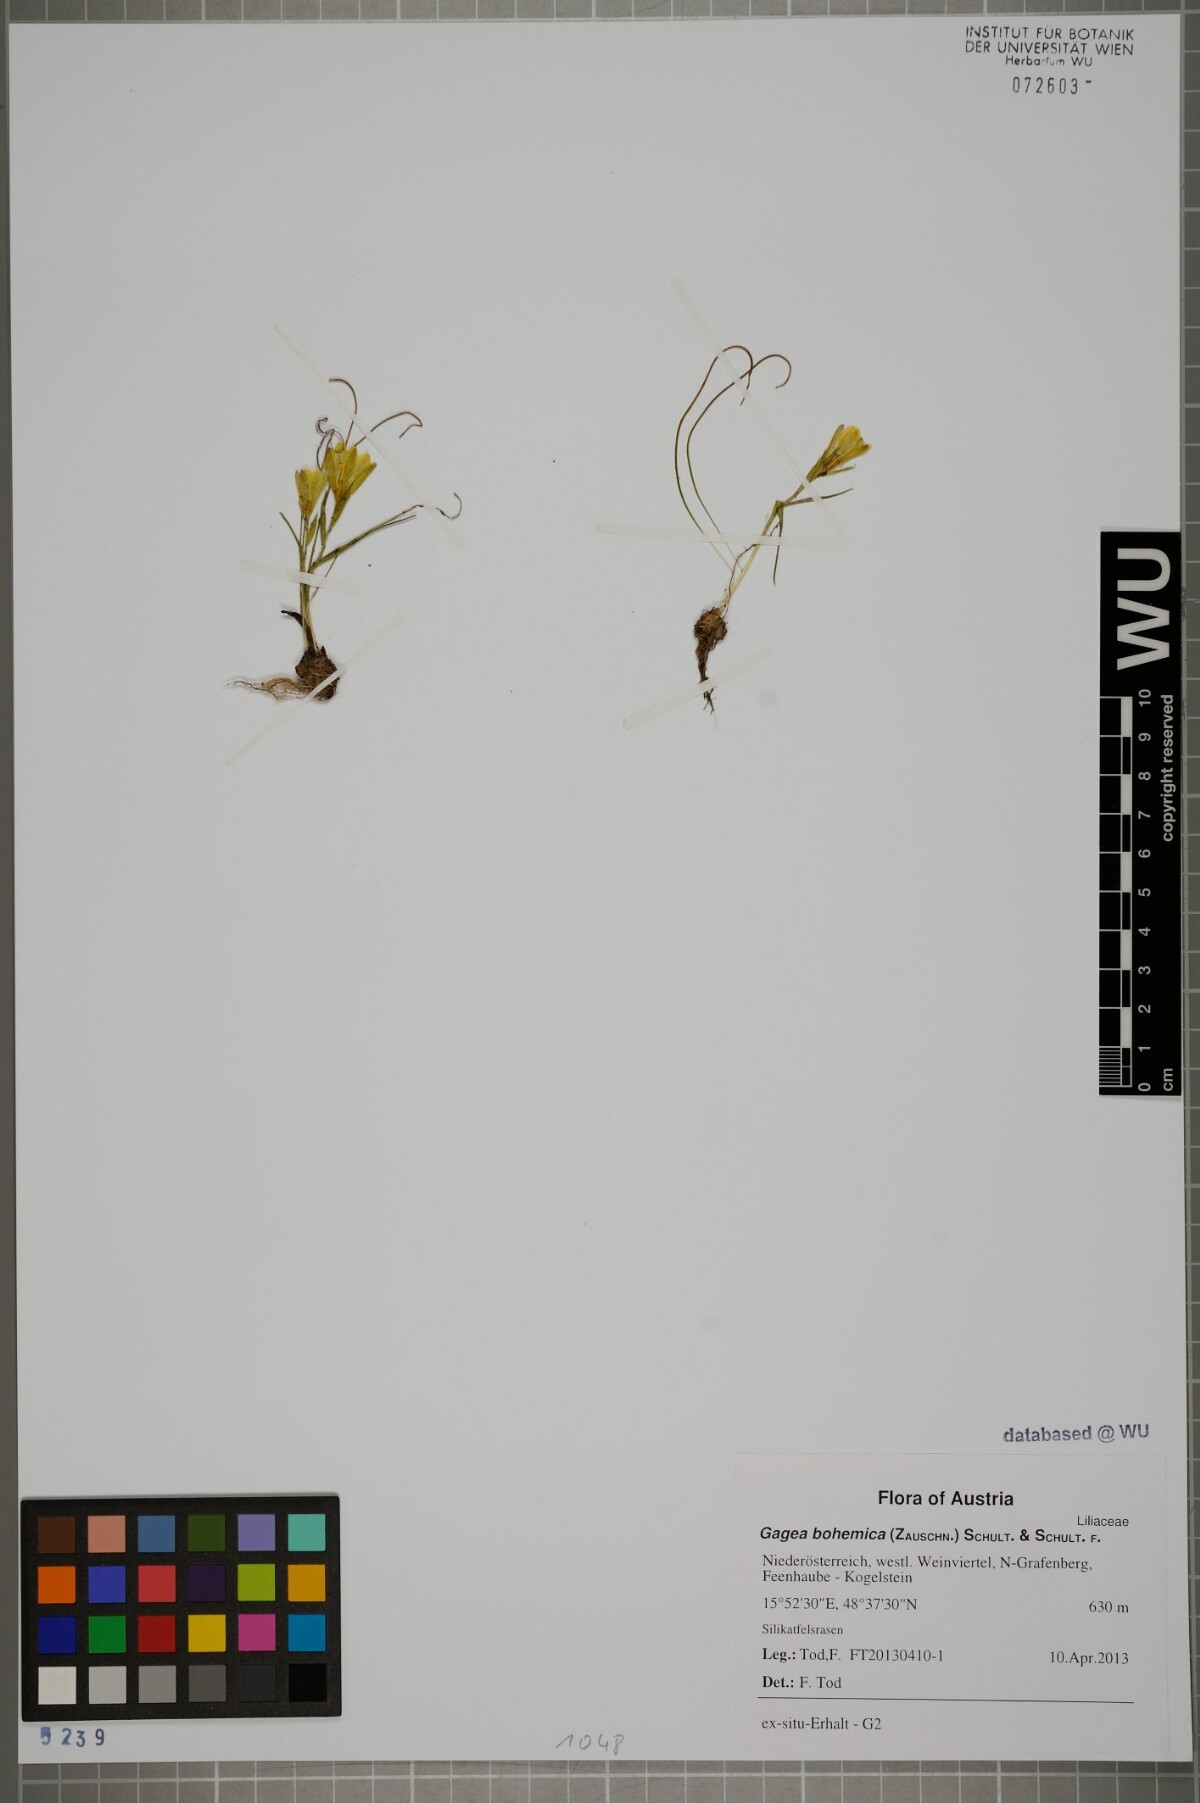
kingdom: Plantae
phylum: Tracheophyta
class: Liliopsida
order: Liliales
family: Liliaceae
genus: Gagea
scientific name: Gagea bohemica
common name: Early star-of-bethlehem
